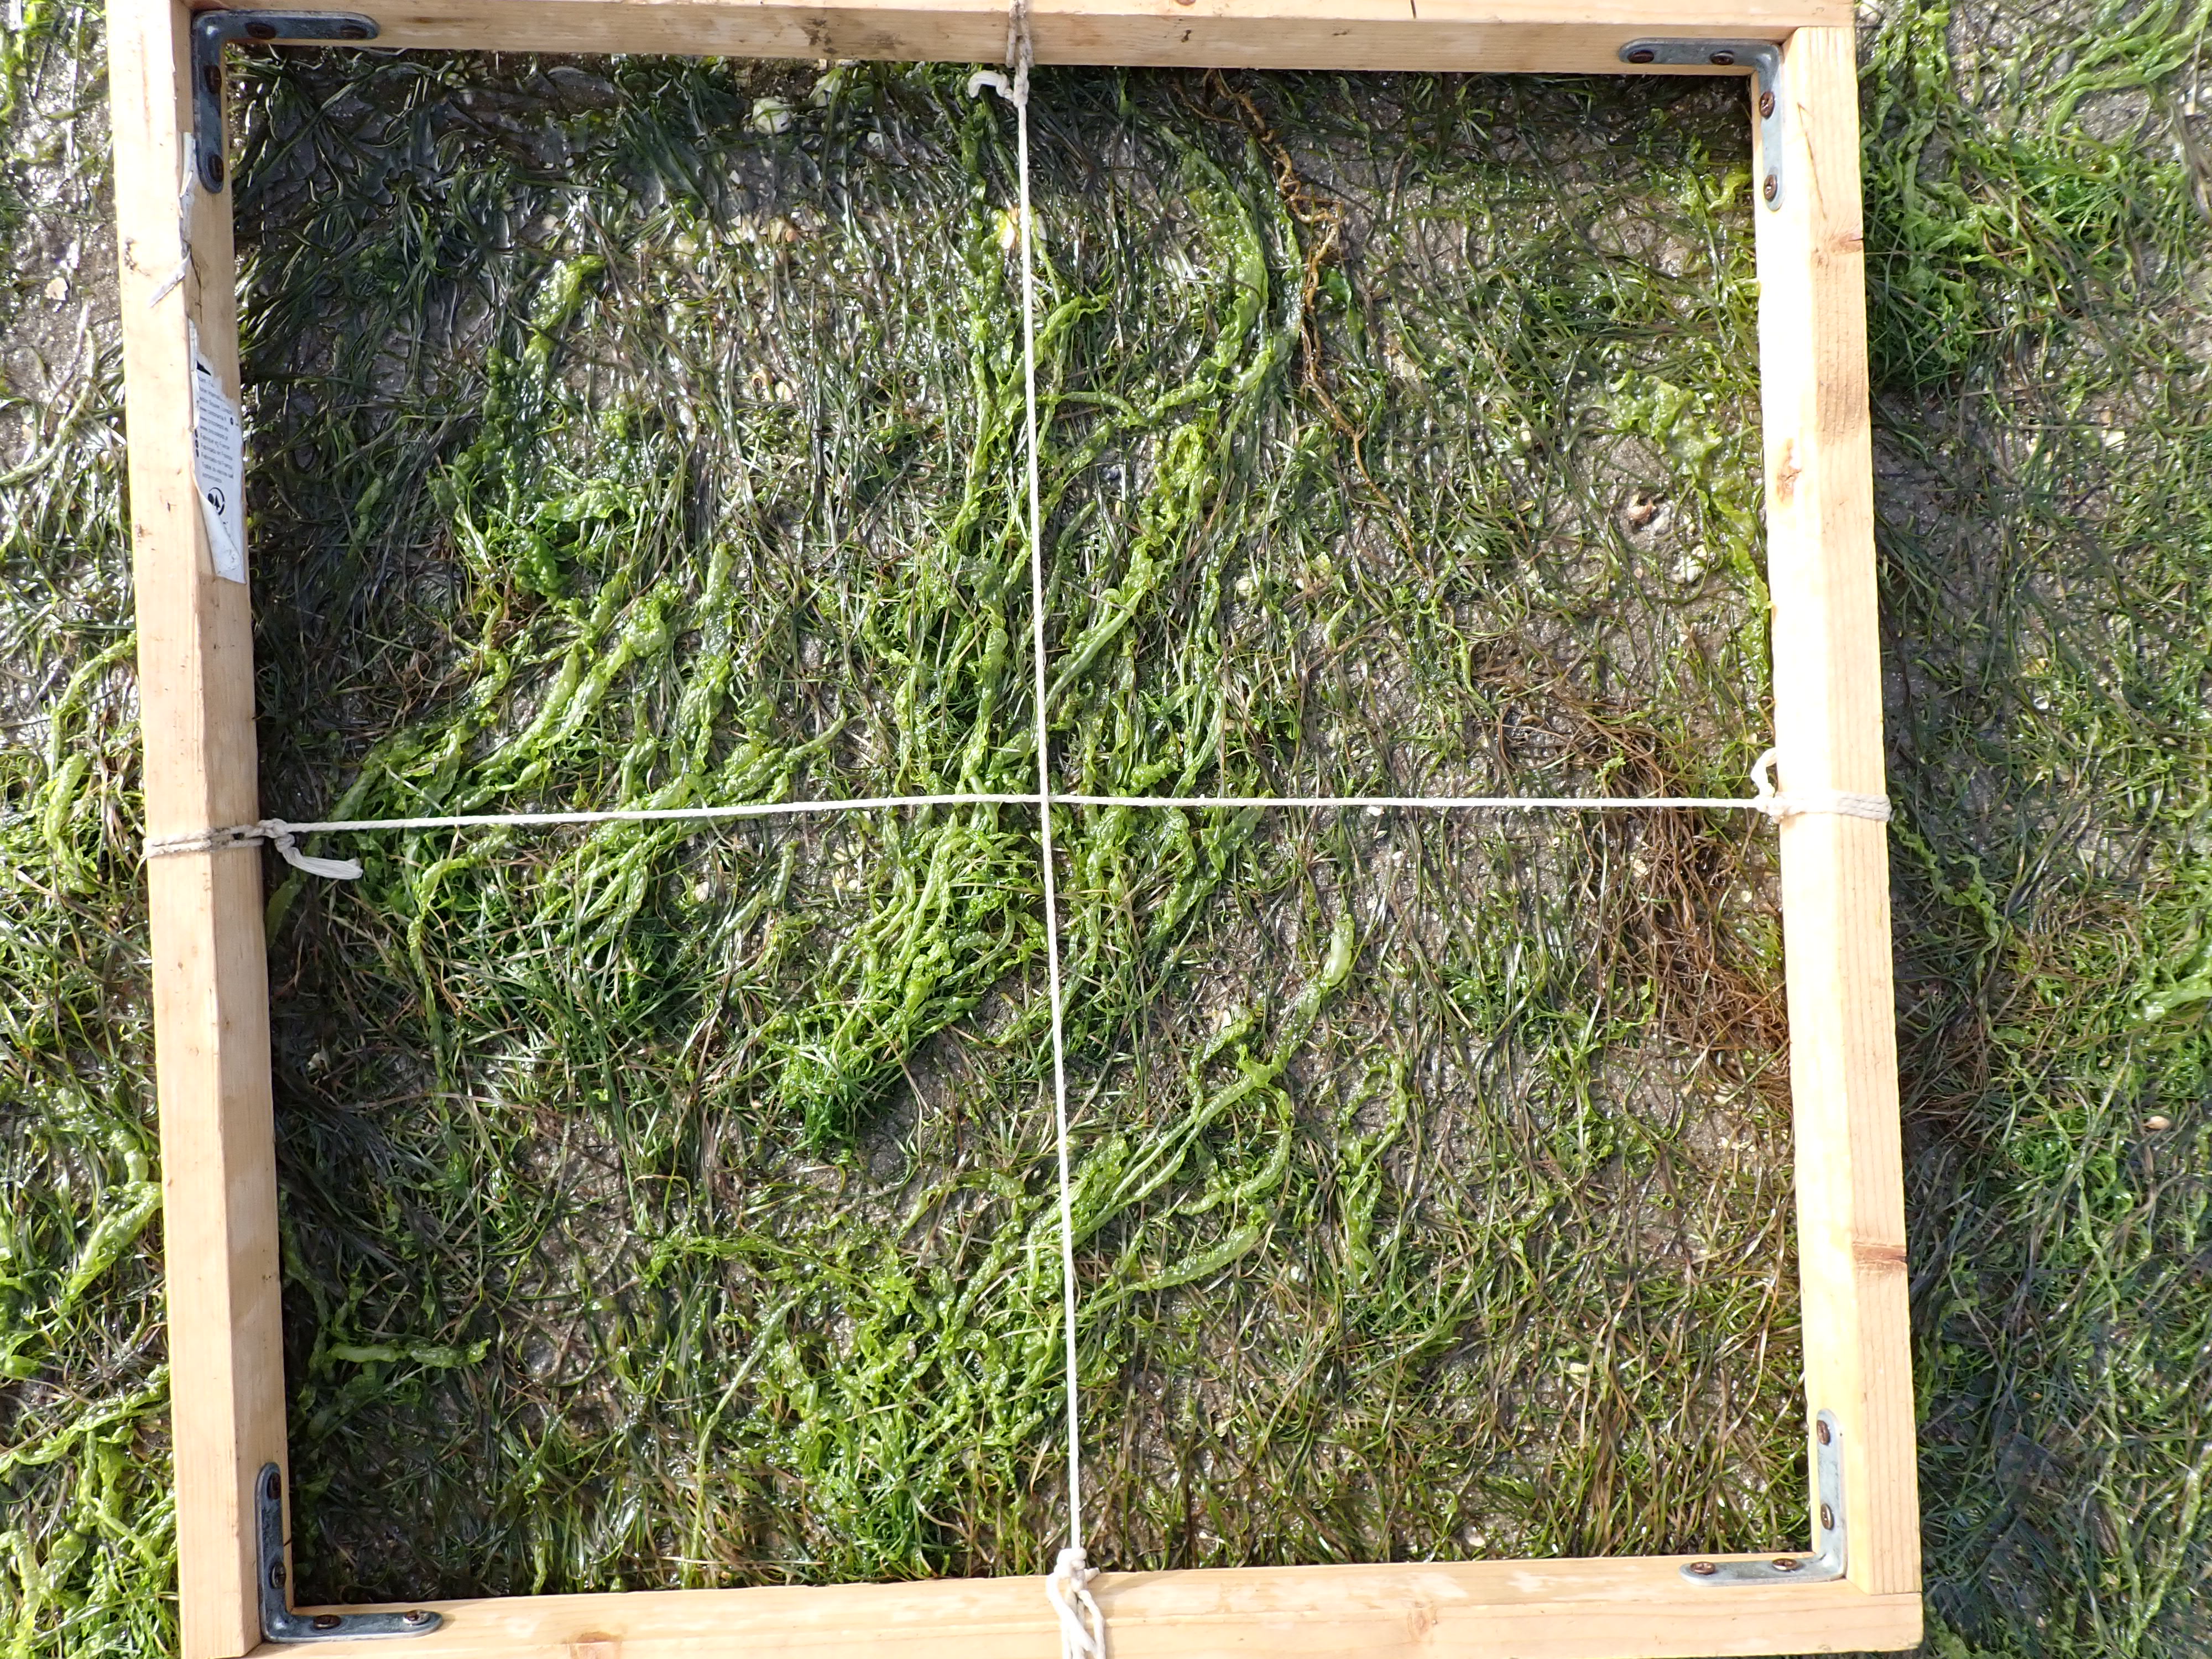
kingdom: Plantae
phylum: Tracheophyta
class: Liliopsida
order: Alismatales
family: Zosteraceae
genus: Zostera
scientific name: Zostera noltii
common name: Dwarf eelgrass
